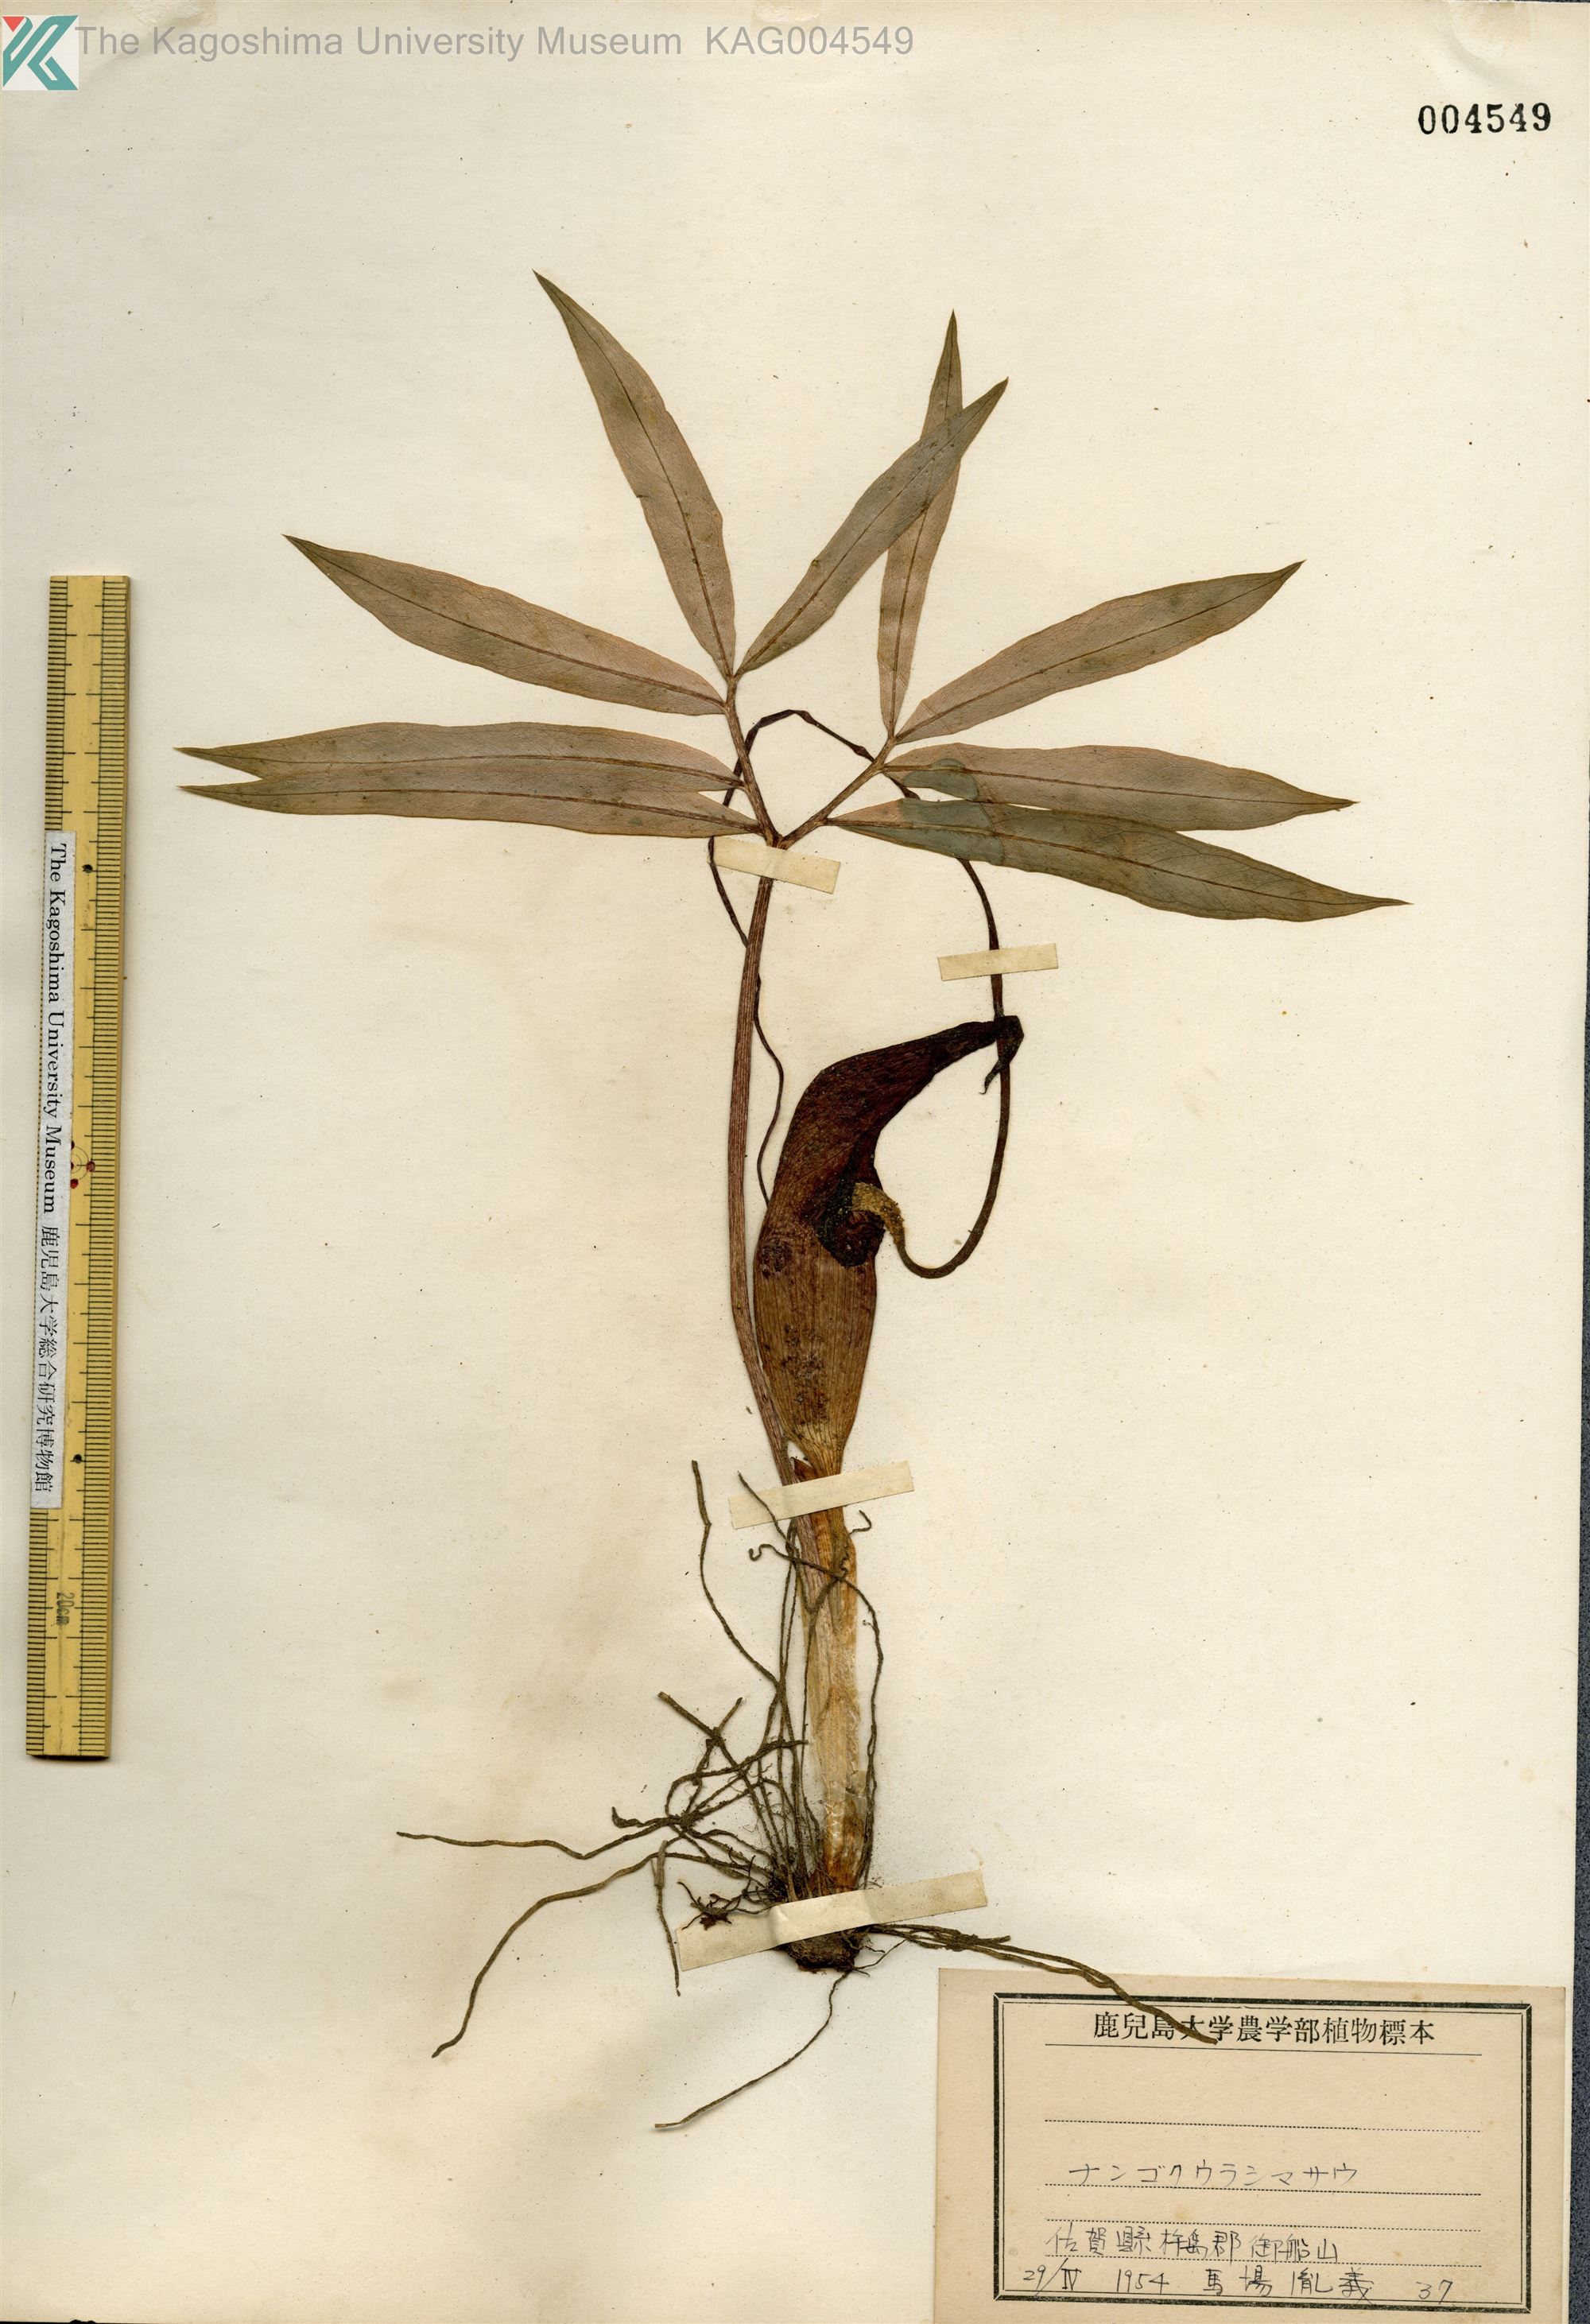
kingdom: Plantae
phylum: Tracheophyta
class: Liliopsida
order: Alismatales
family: Araceae
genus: Arisaema
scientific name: Arisaema thunbergii
